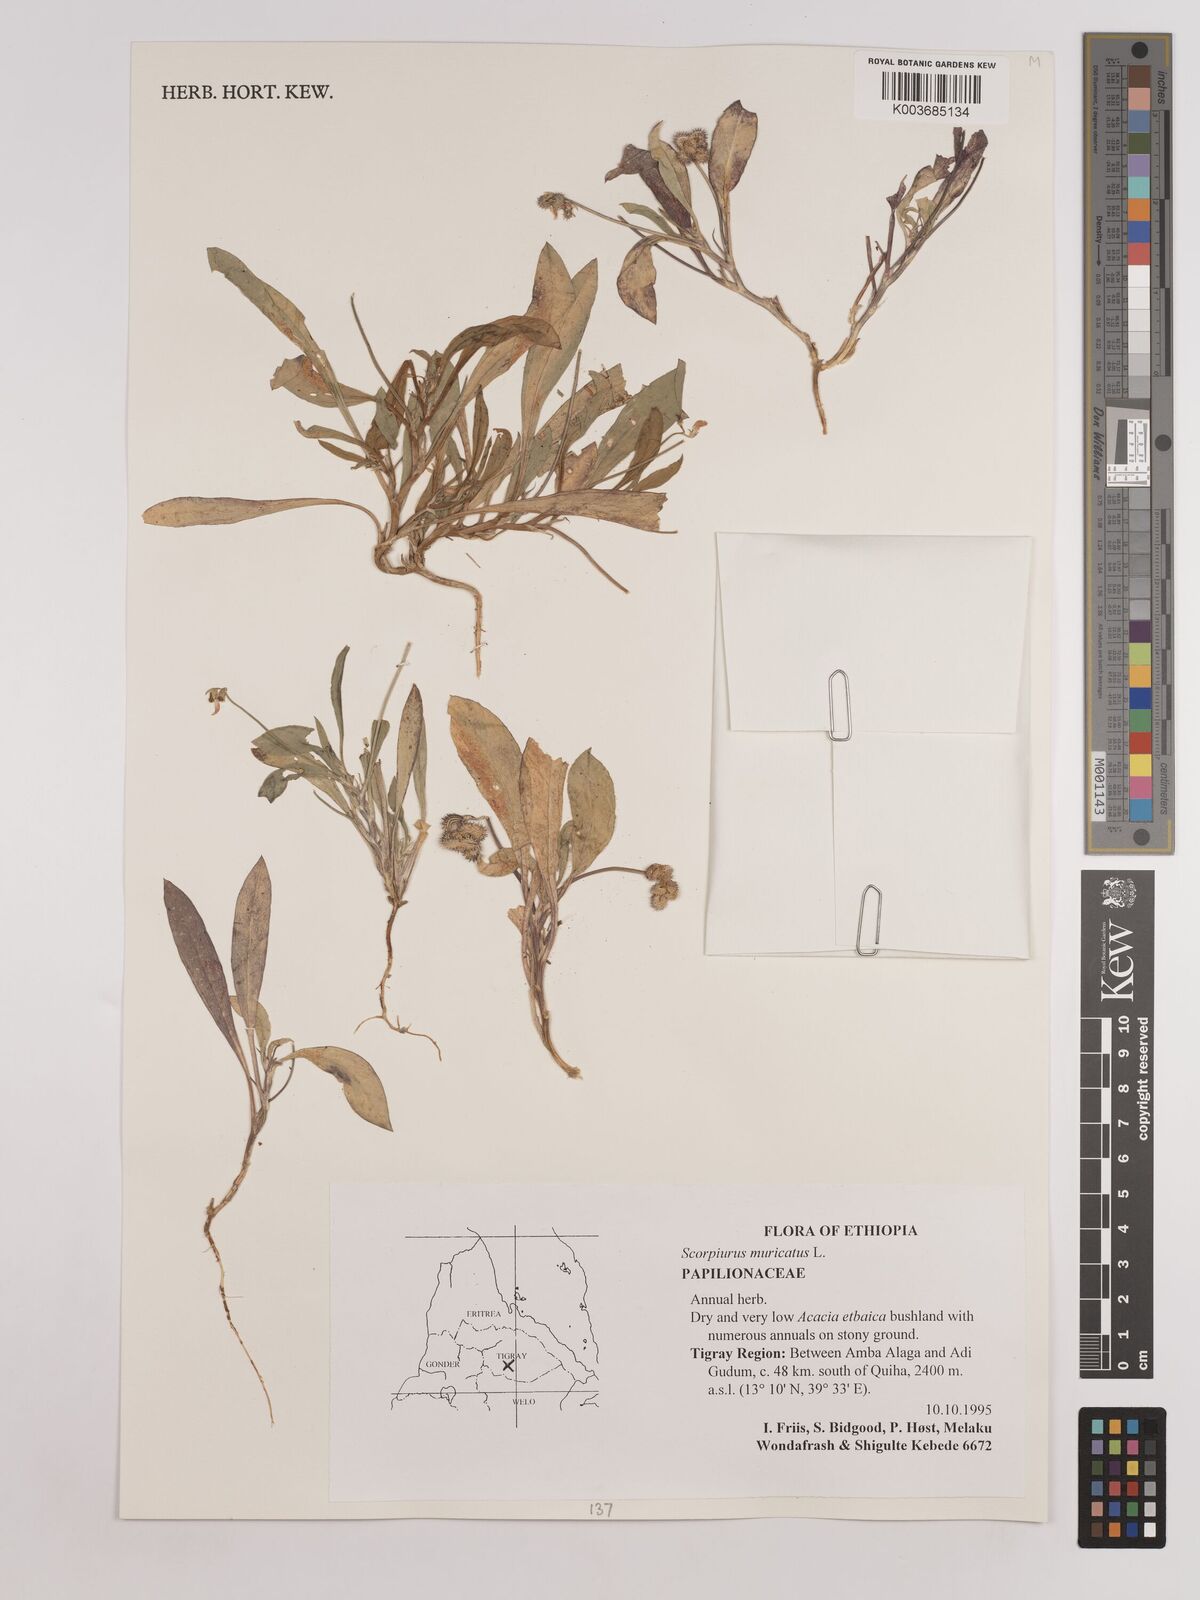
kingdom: Plantae
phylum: Tracheophyta
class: Magnoliopsida
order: Fabales
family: Fabaceae
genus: Scorpiurus
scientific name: Scorpiurus muricatus
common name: Caterpillar-plant
